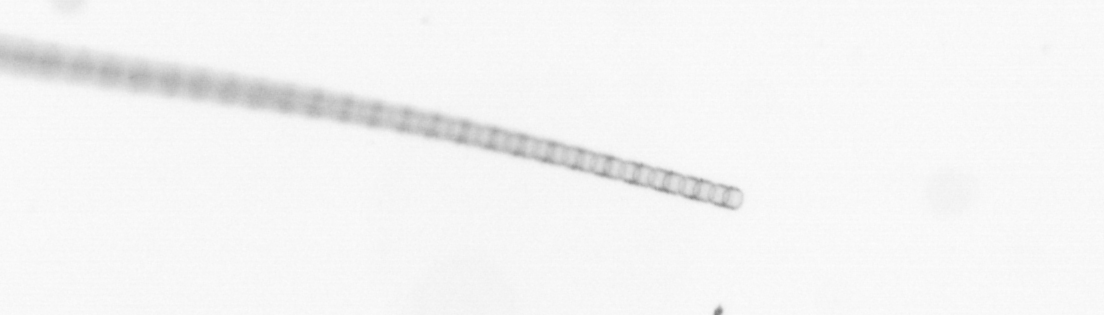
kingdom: Chromista
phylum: Ochrophyta
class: Bacillariophyceae
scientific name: Bacillariophyceae
